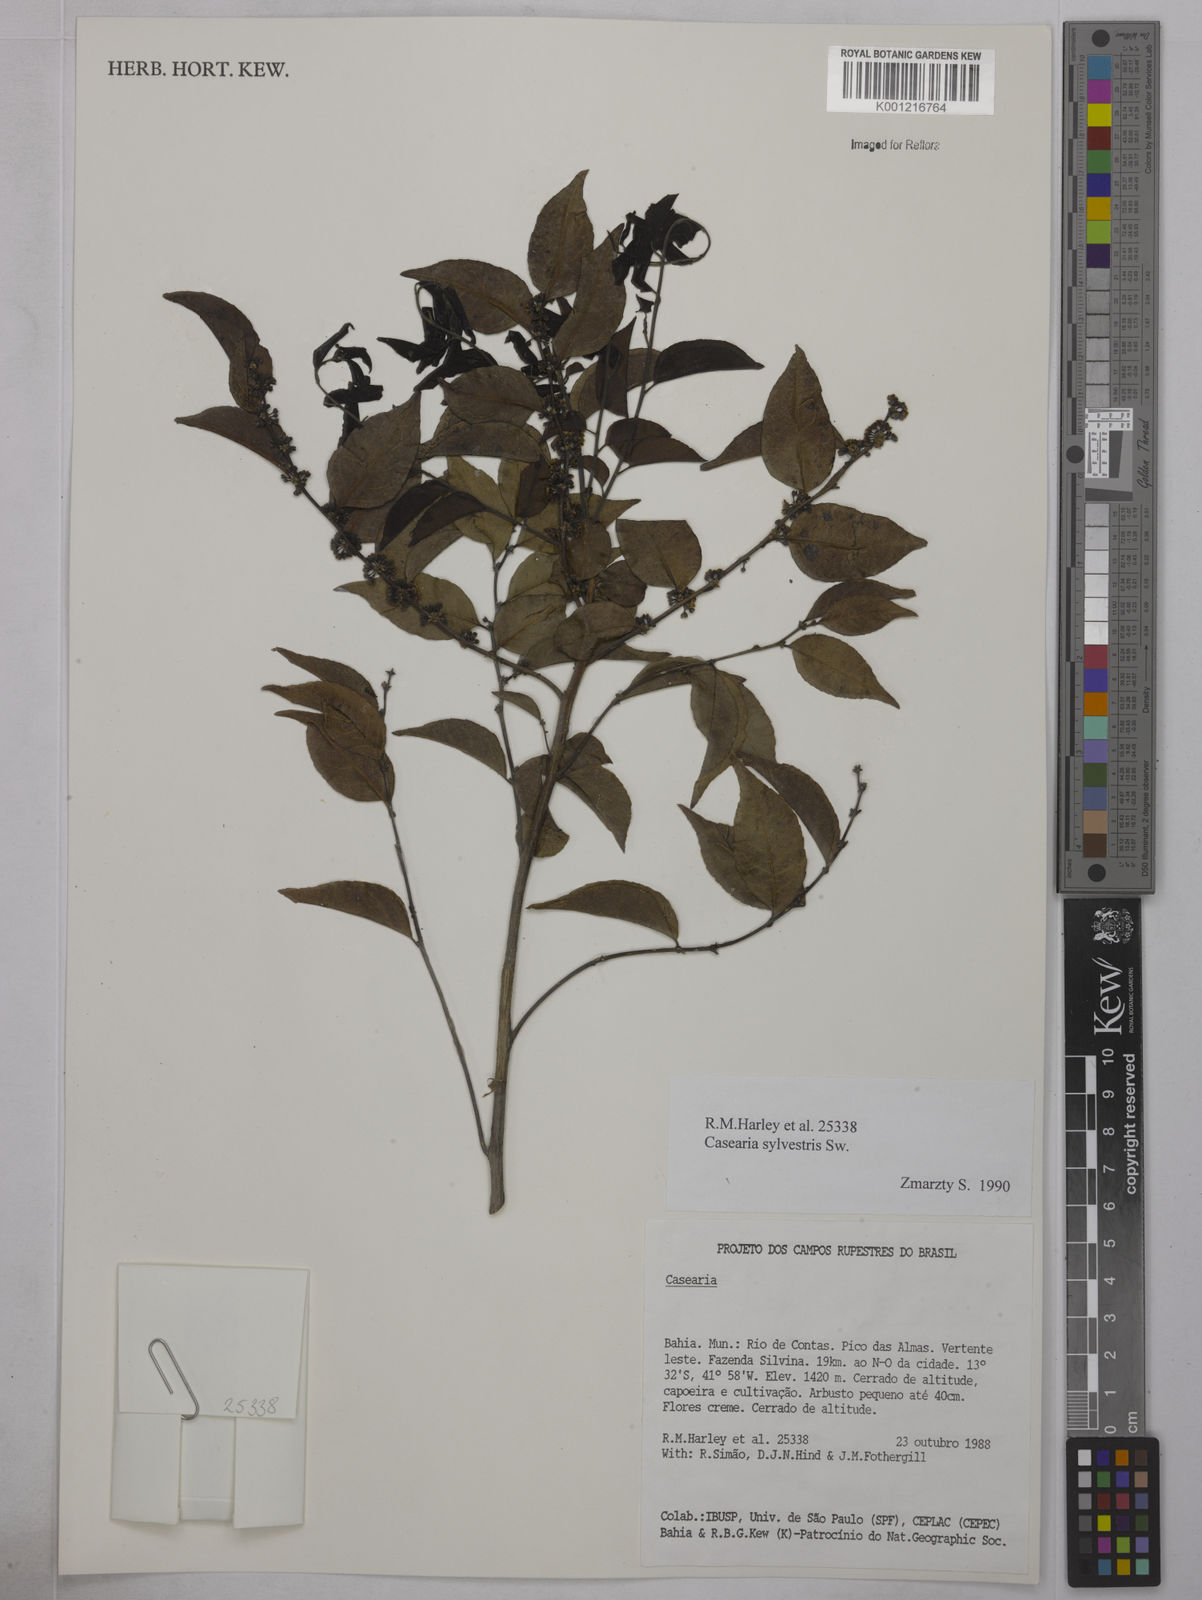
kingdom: Plantae
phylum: Tracheophyta
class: Magnoliopsida
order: Malpighiales
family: Salicaceae
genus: Casearia
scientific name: Casearia sylvestris
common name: Wild sage
